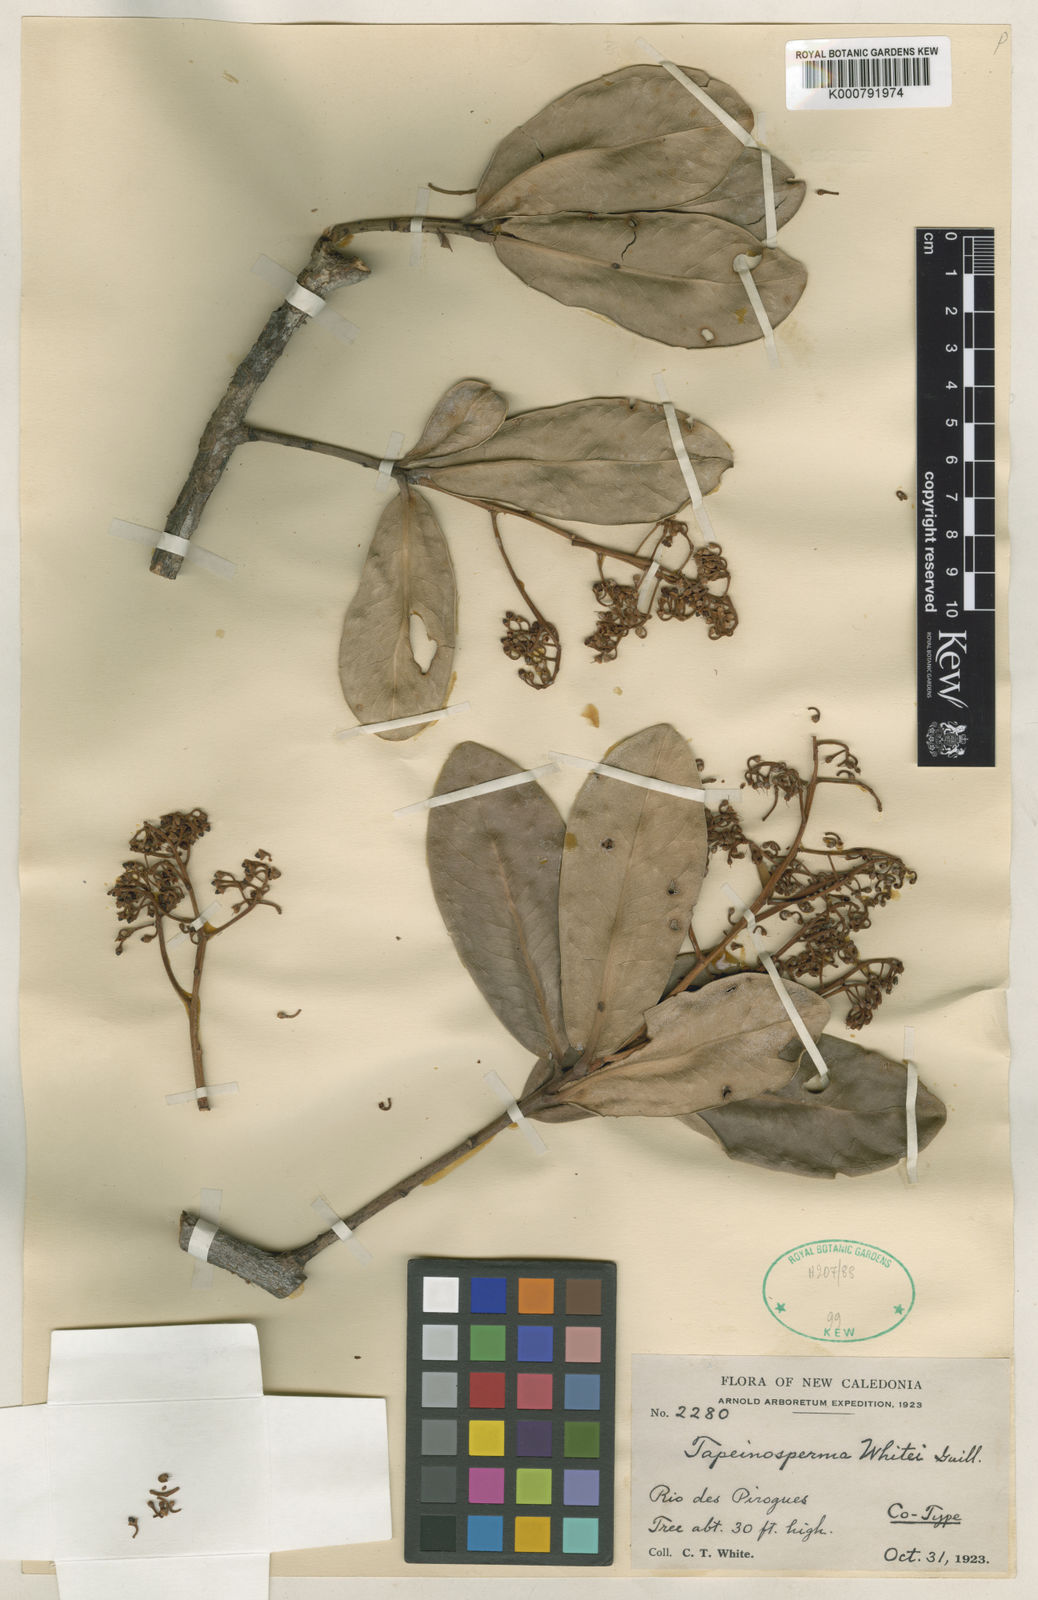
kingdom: Plantae
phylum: Tracheophyta
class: Magnoliopsida
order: Ericales
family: Primulaceae
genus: Tapeinosperma
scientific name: Tapeinosperma whitei
